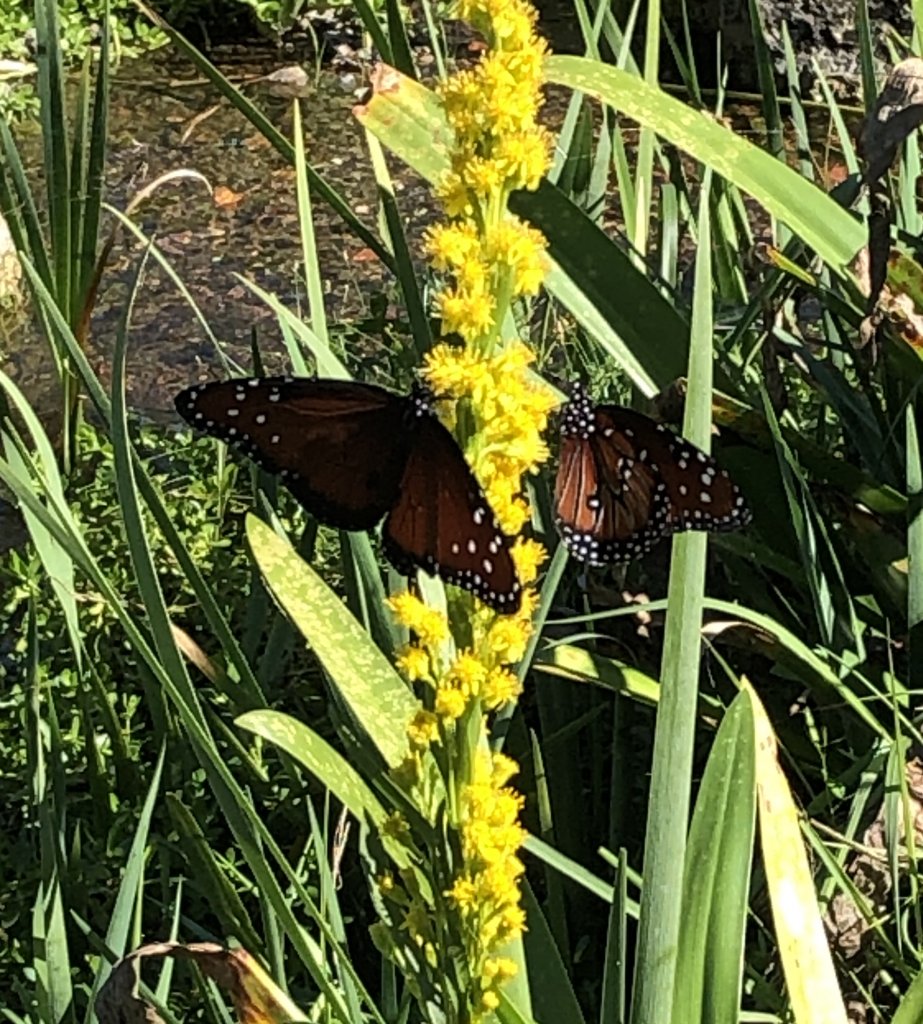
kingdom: Animalia
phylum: Arthropoda
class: Insecta
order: Lepidoptera
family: Nymphalidae
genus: Danaus
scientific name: Danaus gilippus
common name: Queen
